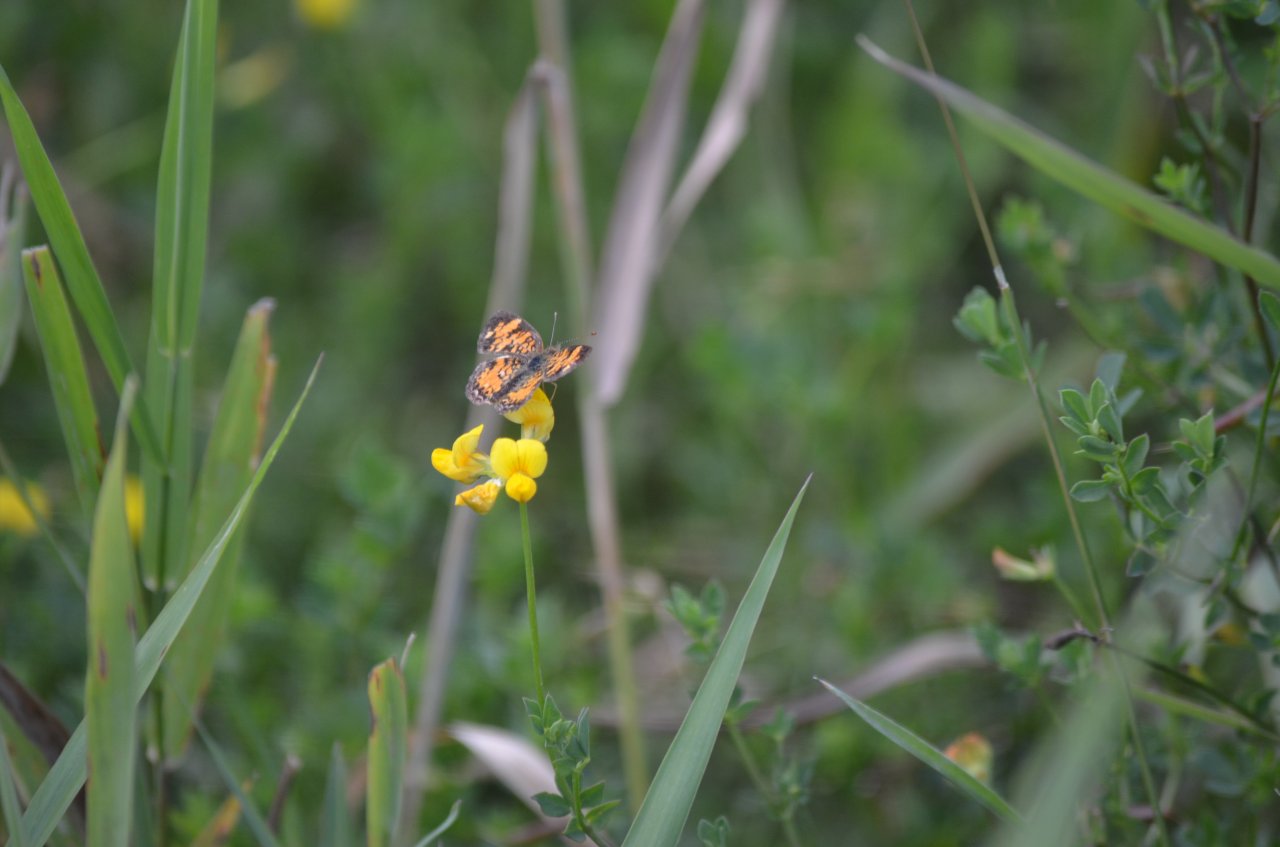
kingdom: Animalia
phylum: Arthropoda
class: Insecta
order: Lepidoptera
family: Nymphalidae
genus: Phyciodes
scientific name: Phyciodes tharos
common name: Northern Crescent
